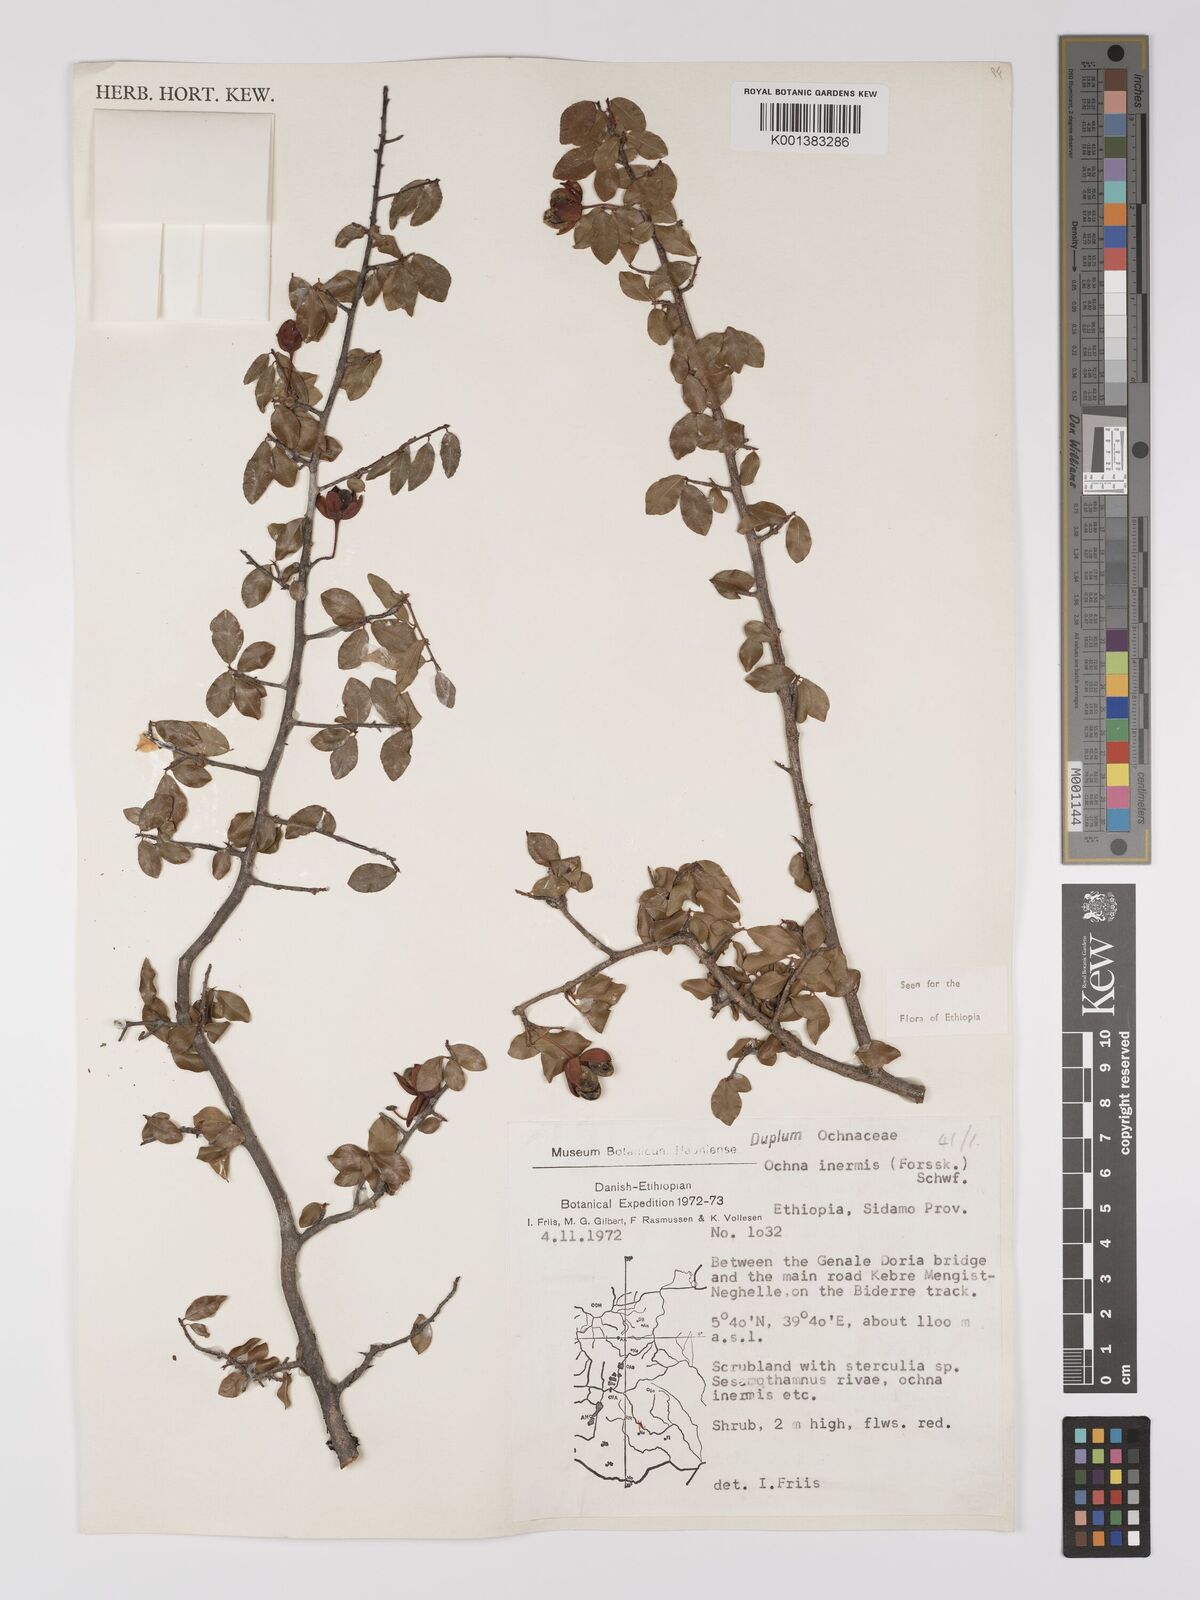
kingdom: Plantae
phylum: Tracheophyta
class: Magnoliopsida
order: Malpighiales
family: Ochnaceae
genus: Ochna
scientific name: Ochna inermis
